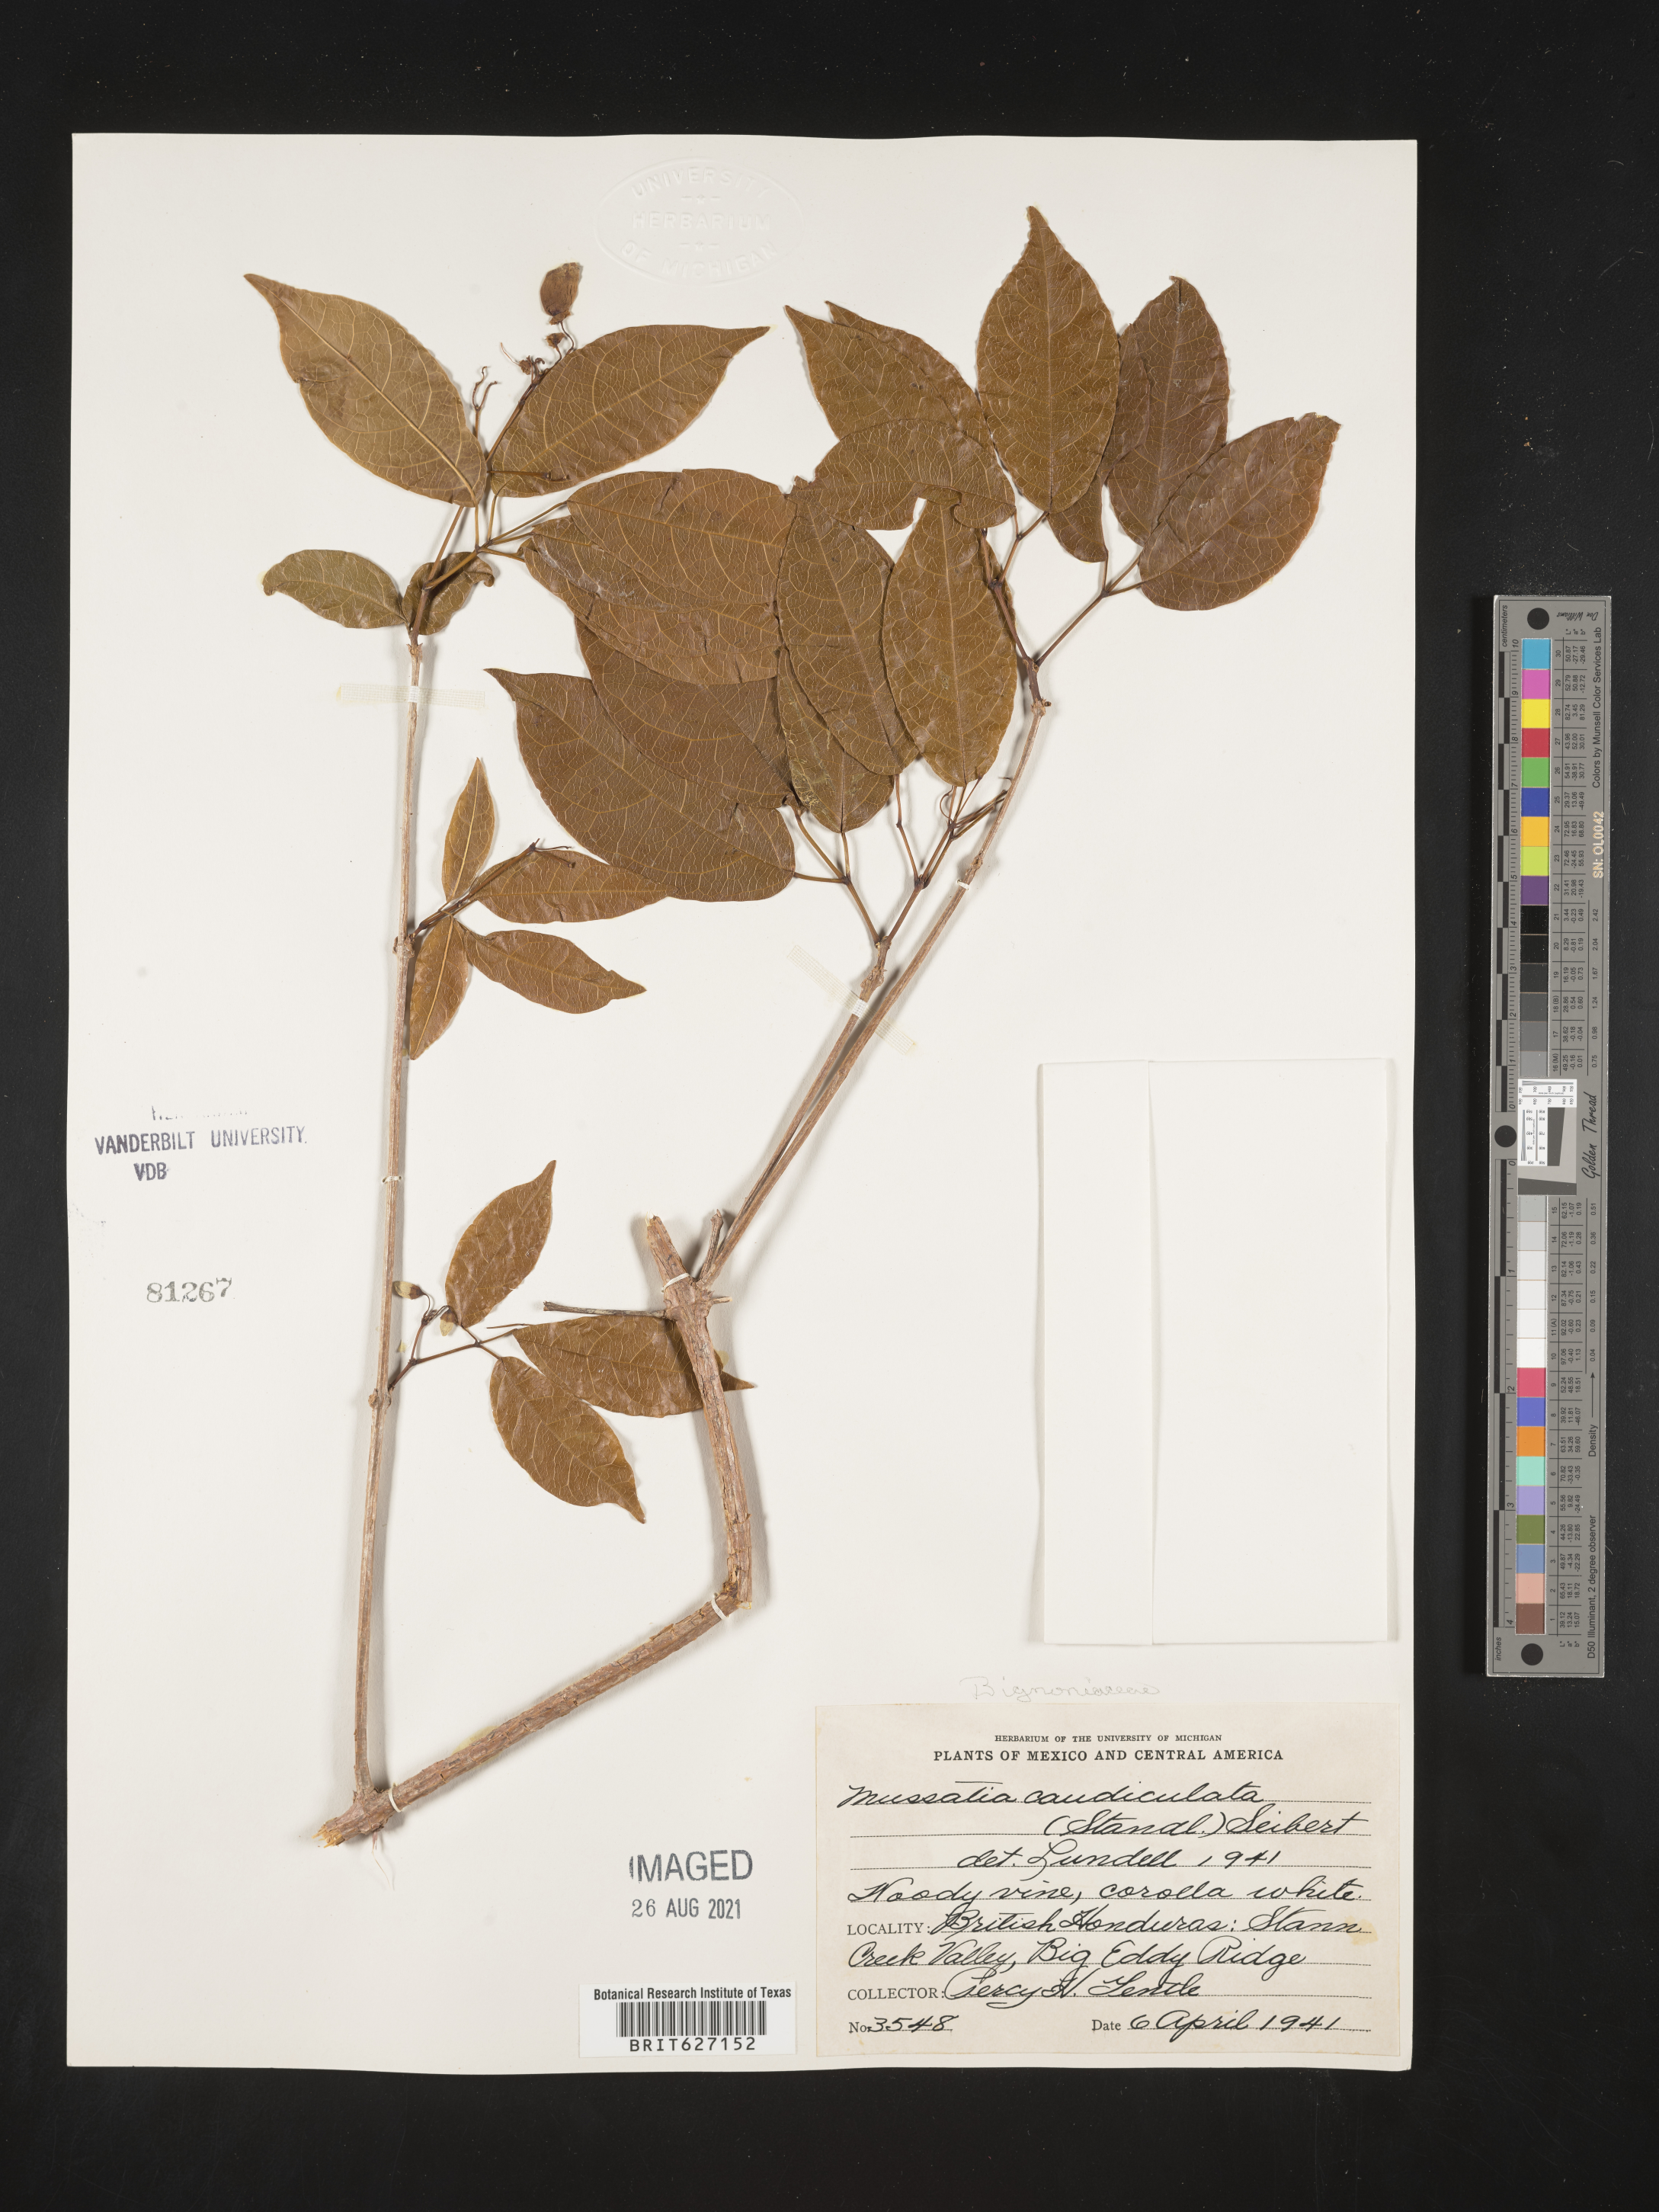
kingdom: Plantae
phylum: Tracheophyta
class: Magnoliopsida
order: Lamiales
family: Bignoniaceae
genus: Tanaecium
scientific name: Tanaecium caudiculatum
